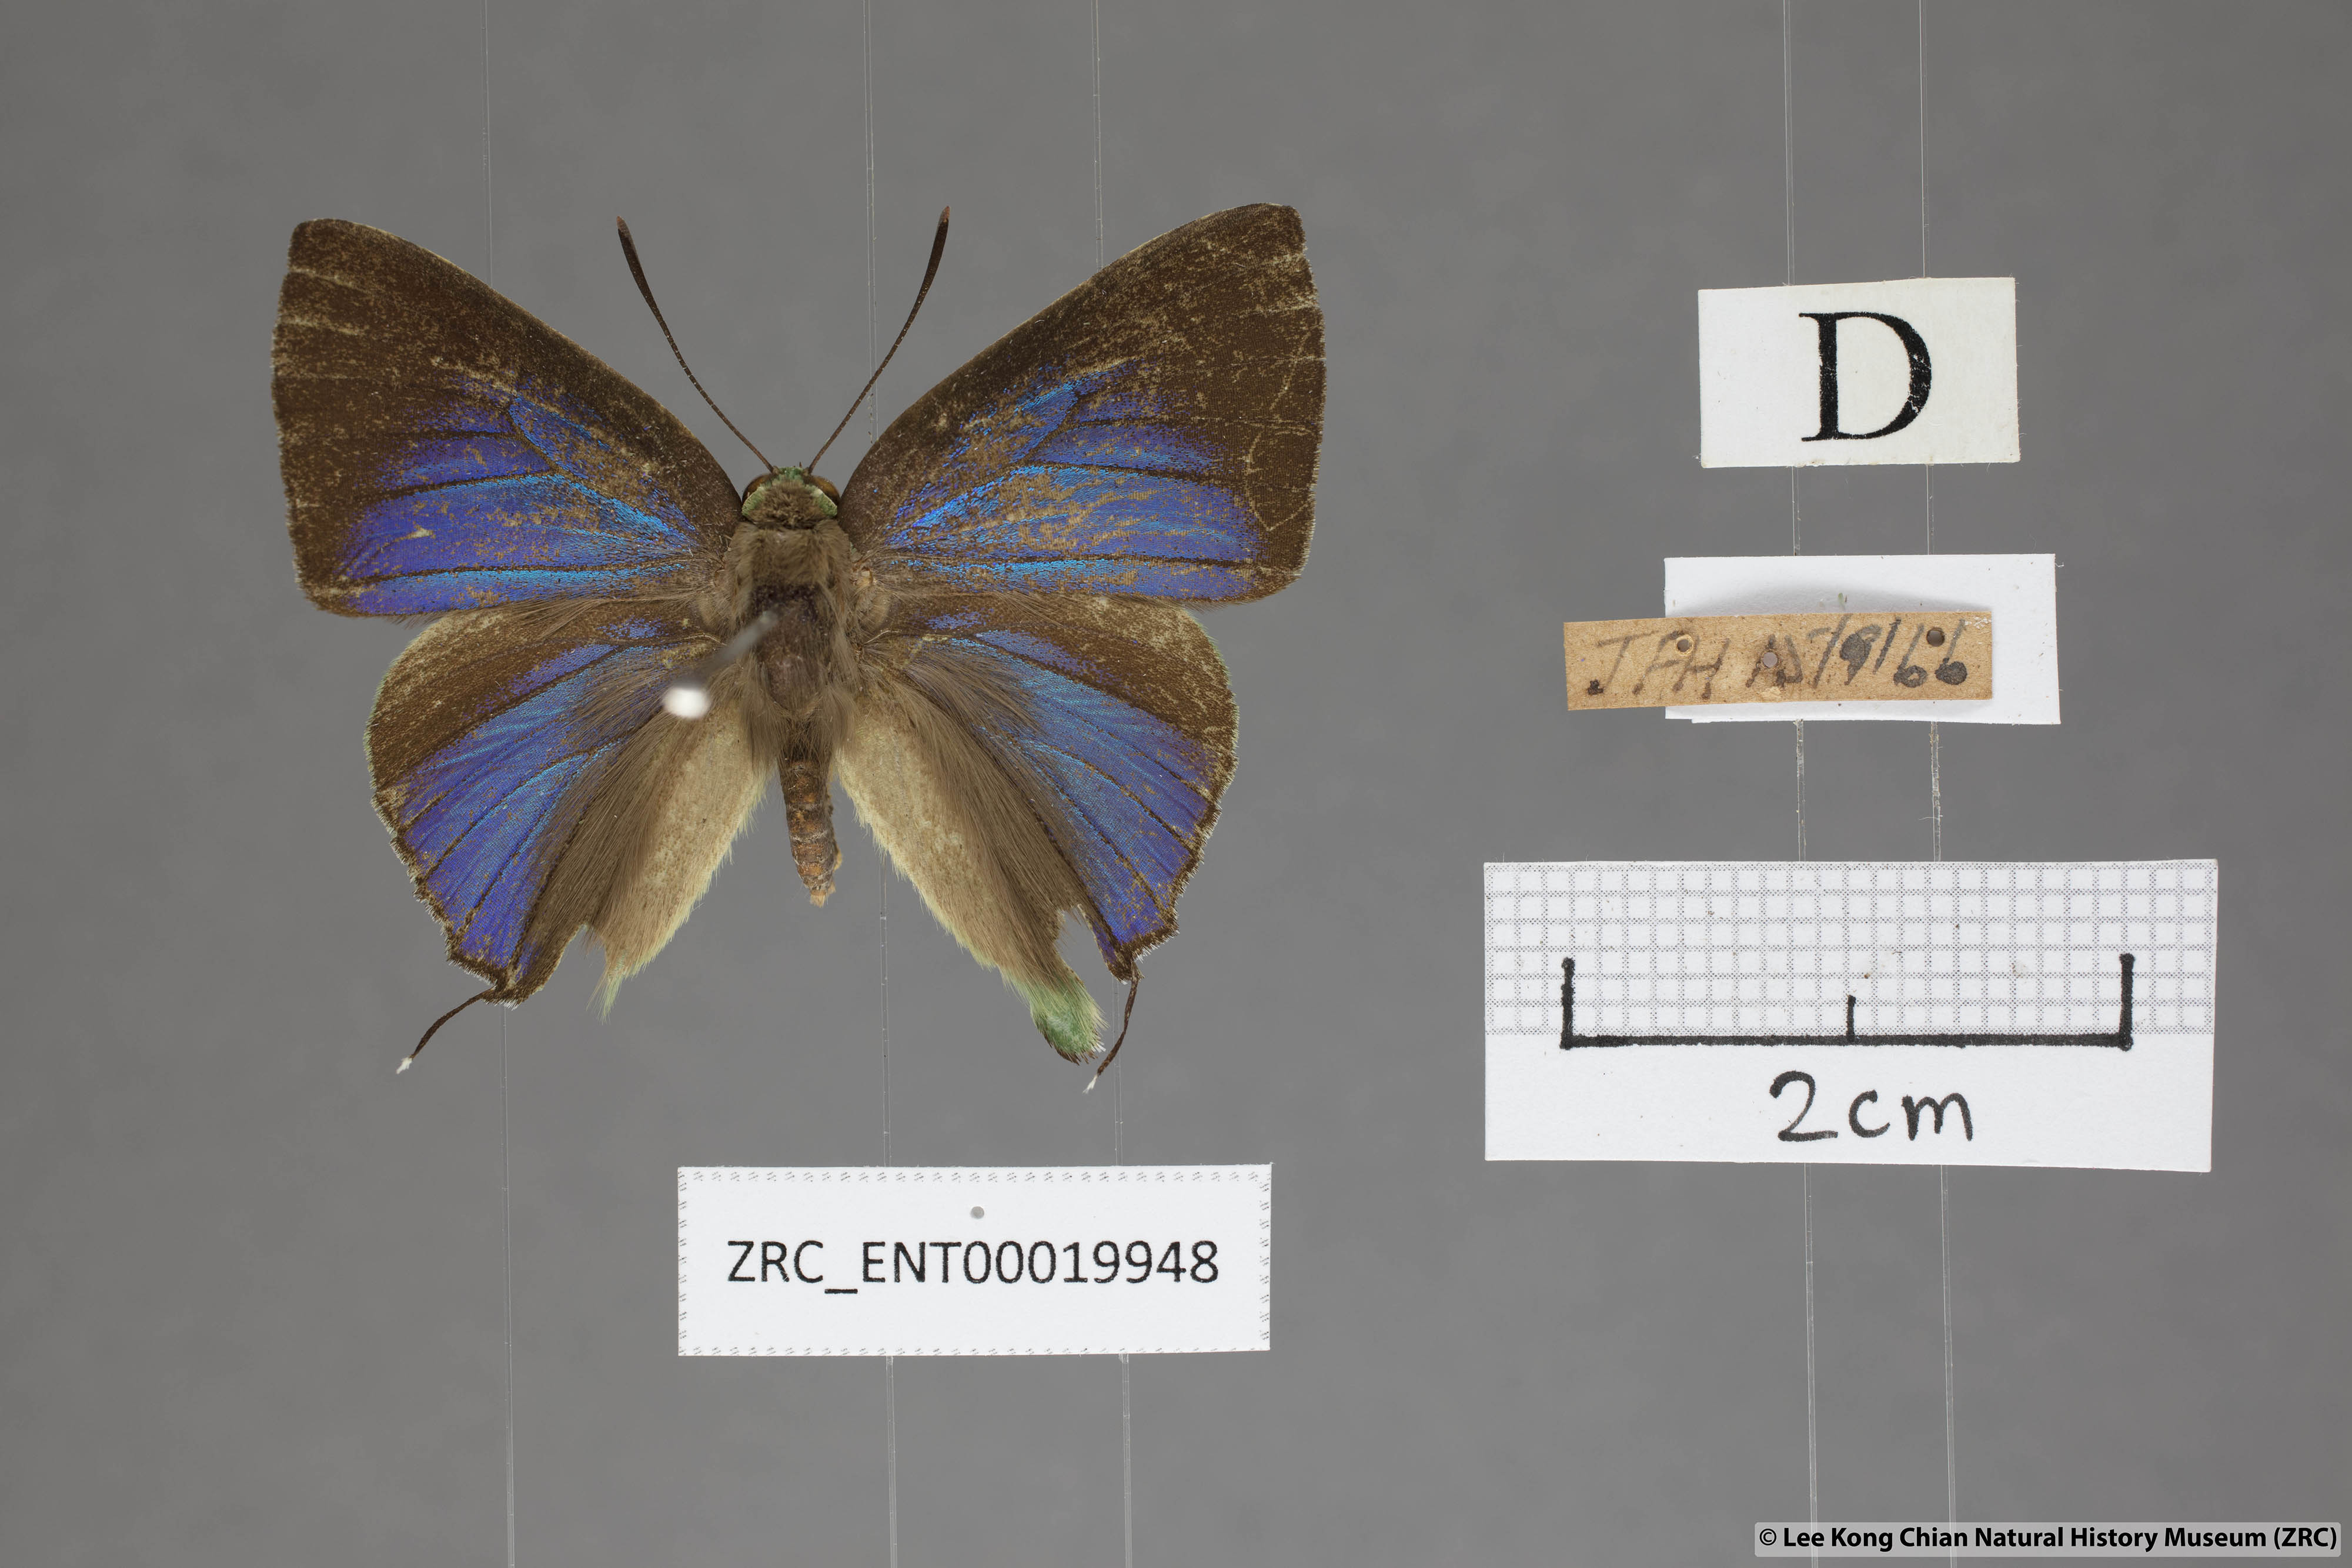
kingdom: Animalia
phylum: Arthropoda
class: Insecta
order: Lepidoptera
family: Lycaenidae
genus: Artipe
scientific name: Artipe eryx
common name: Green flash
